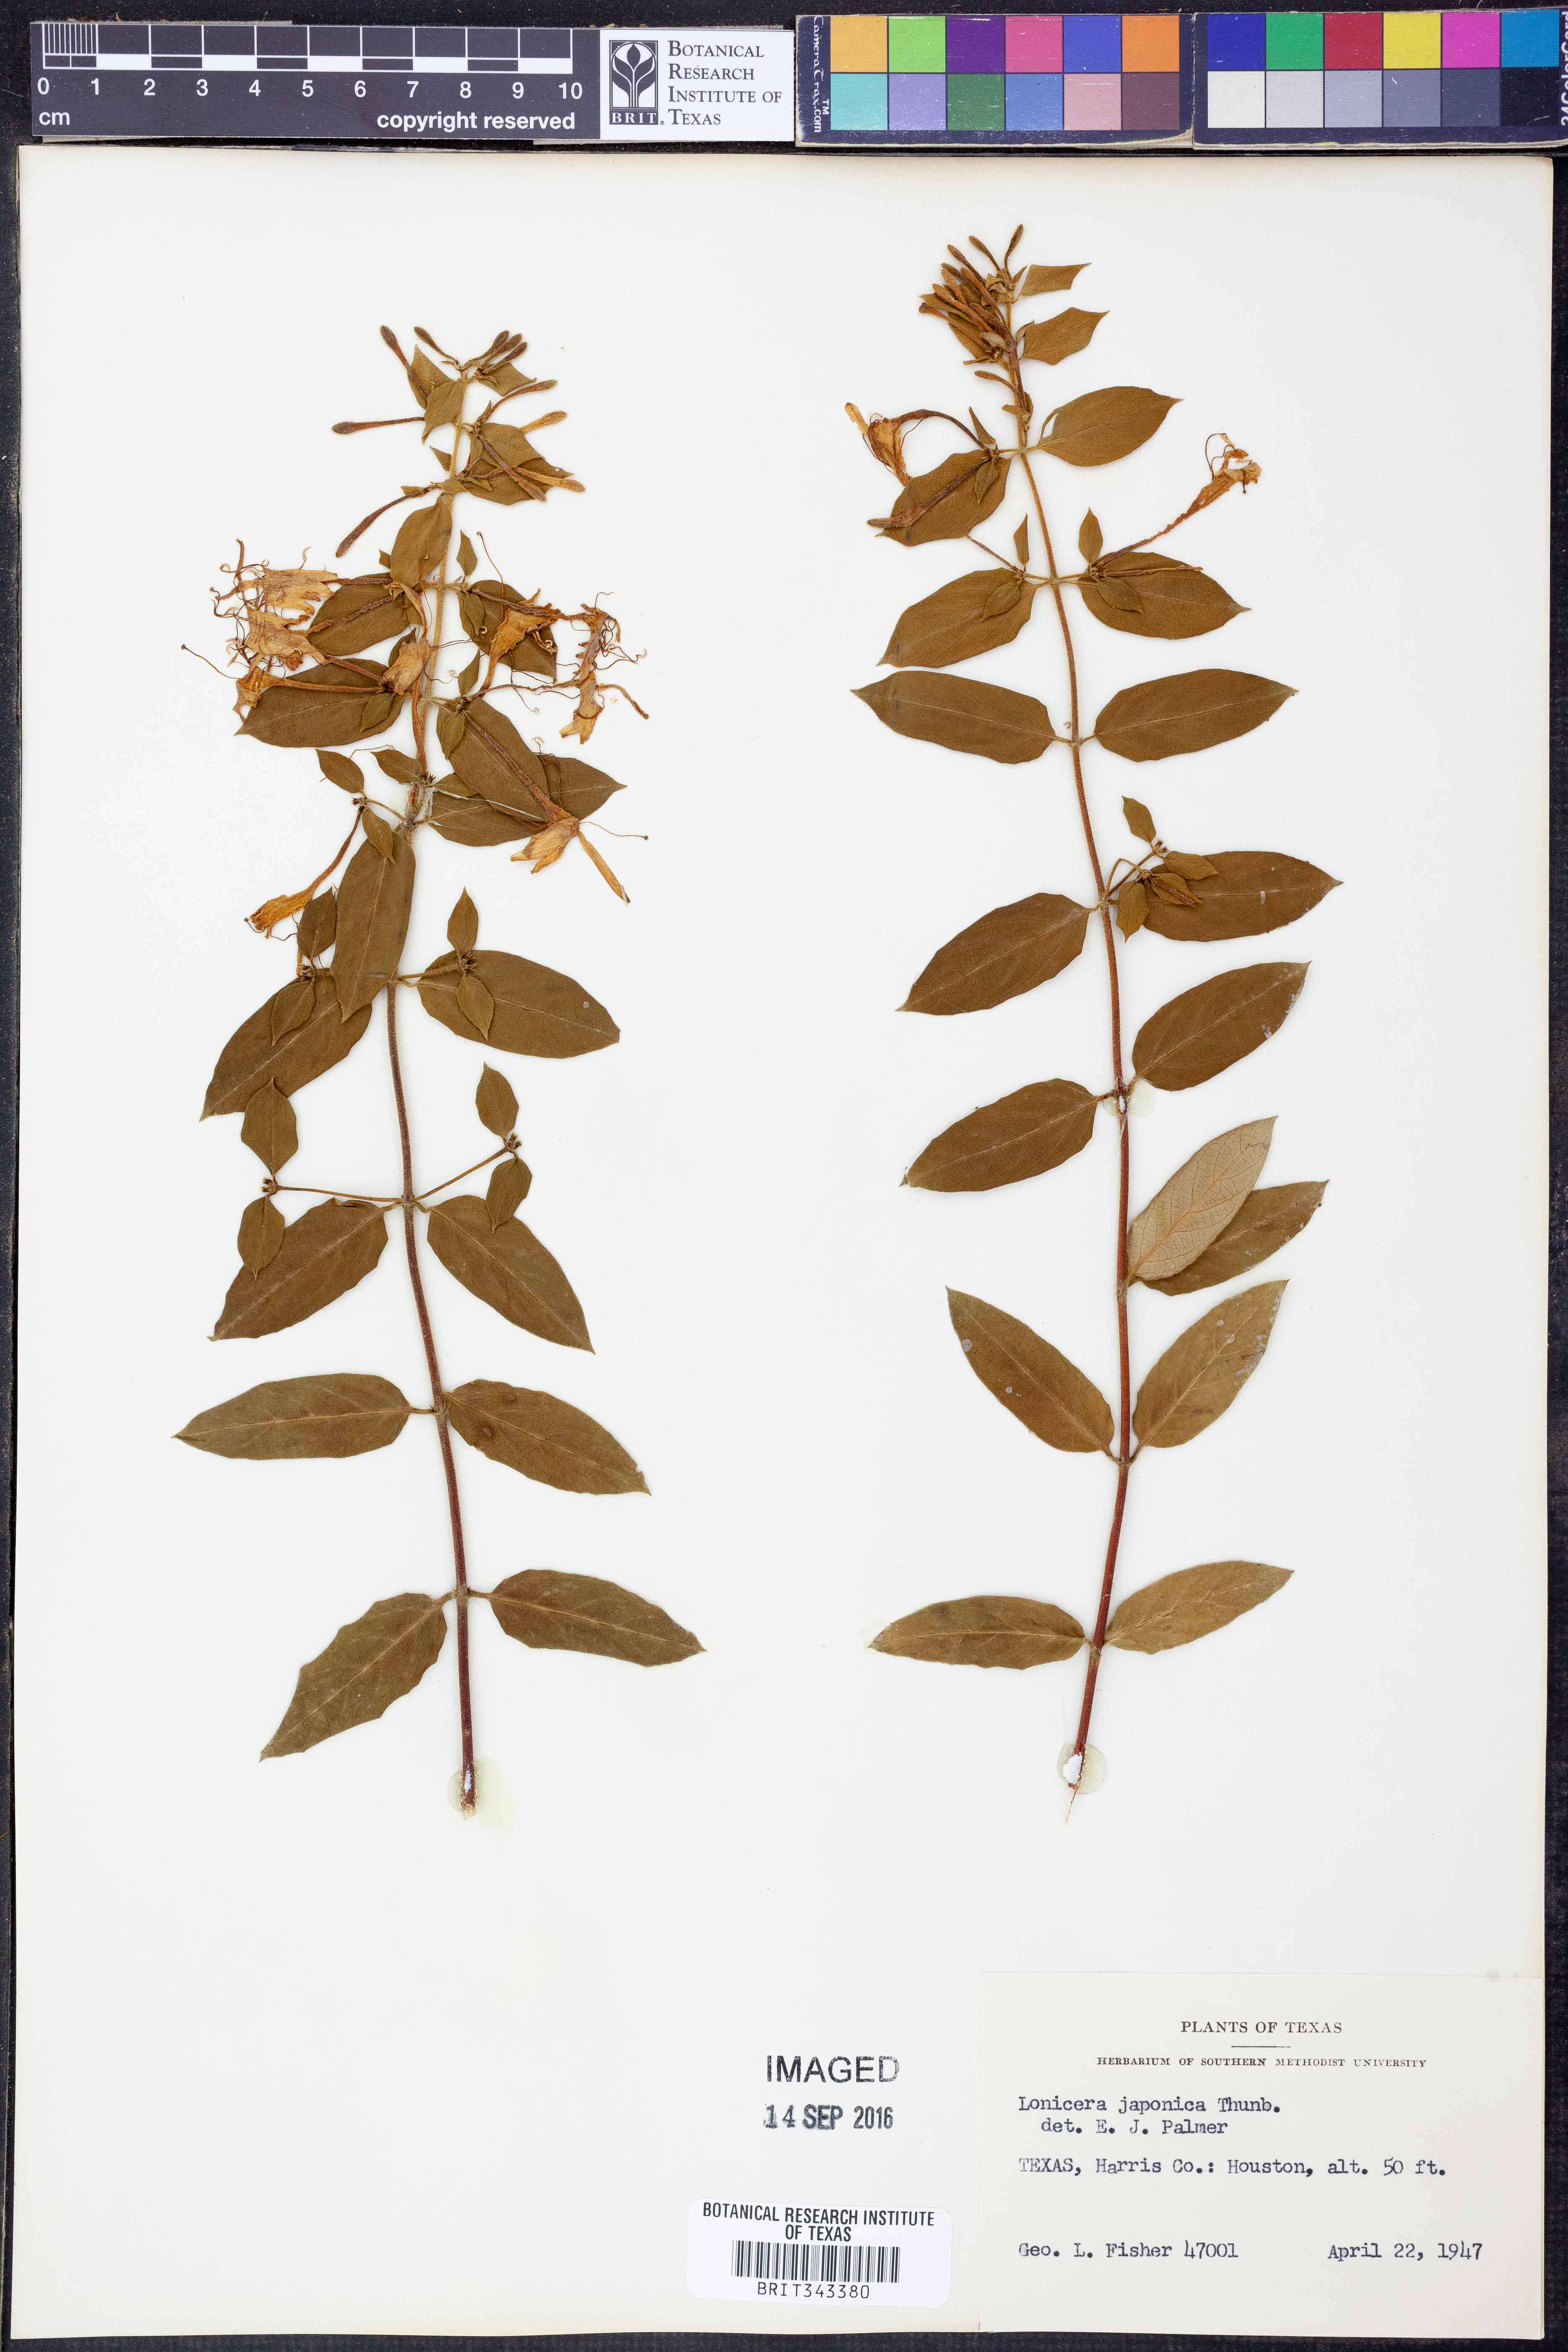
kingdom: Plantae
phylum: Tracheophyta
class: Magnoliopsida
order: Dipsacales
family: Caprifoliaceae
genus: Lonicera
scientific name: Lonicera japonica
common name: Japanese honeysuckle
